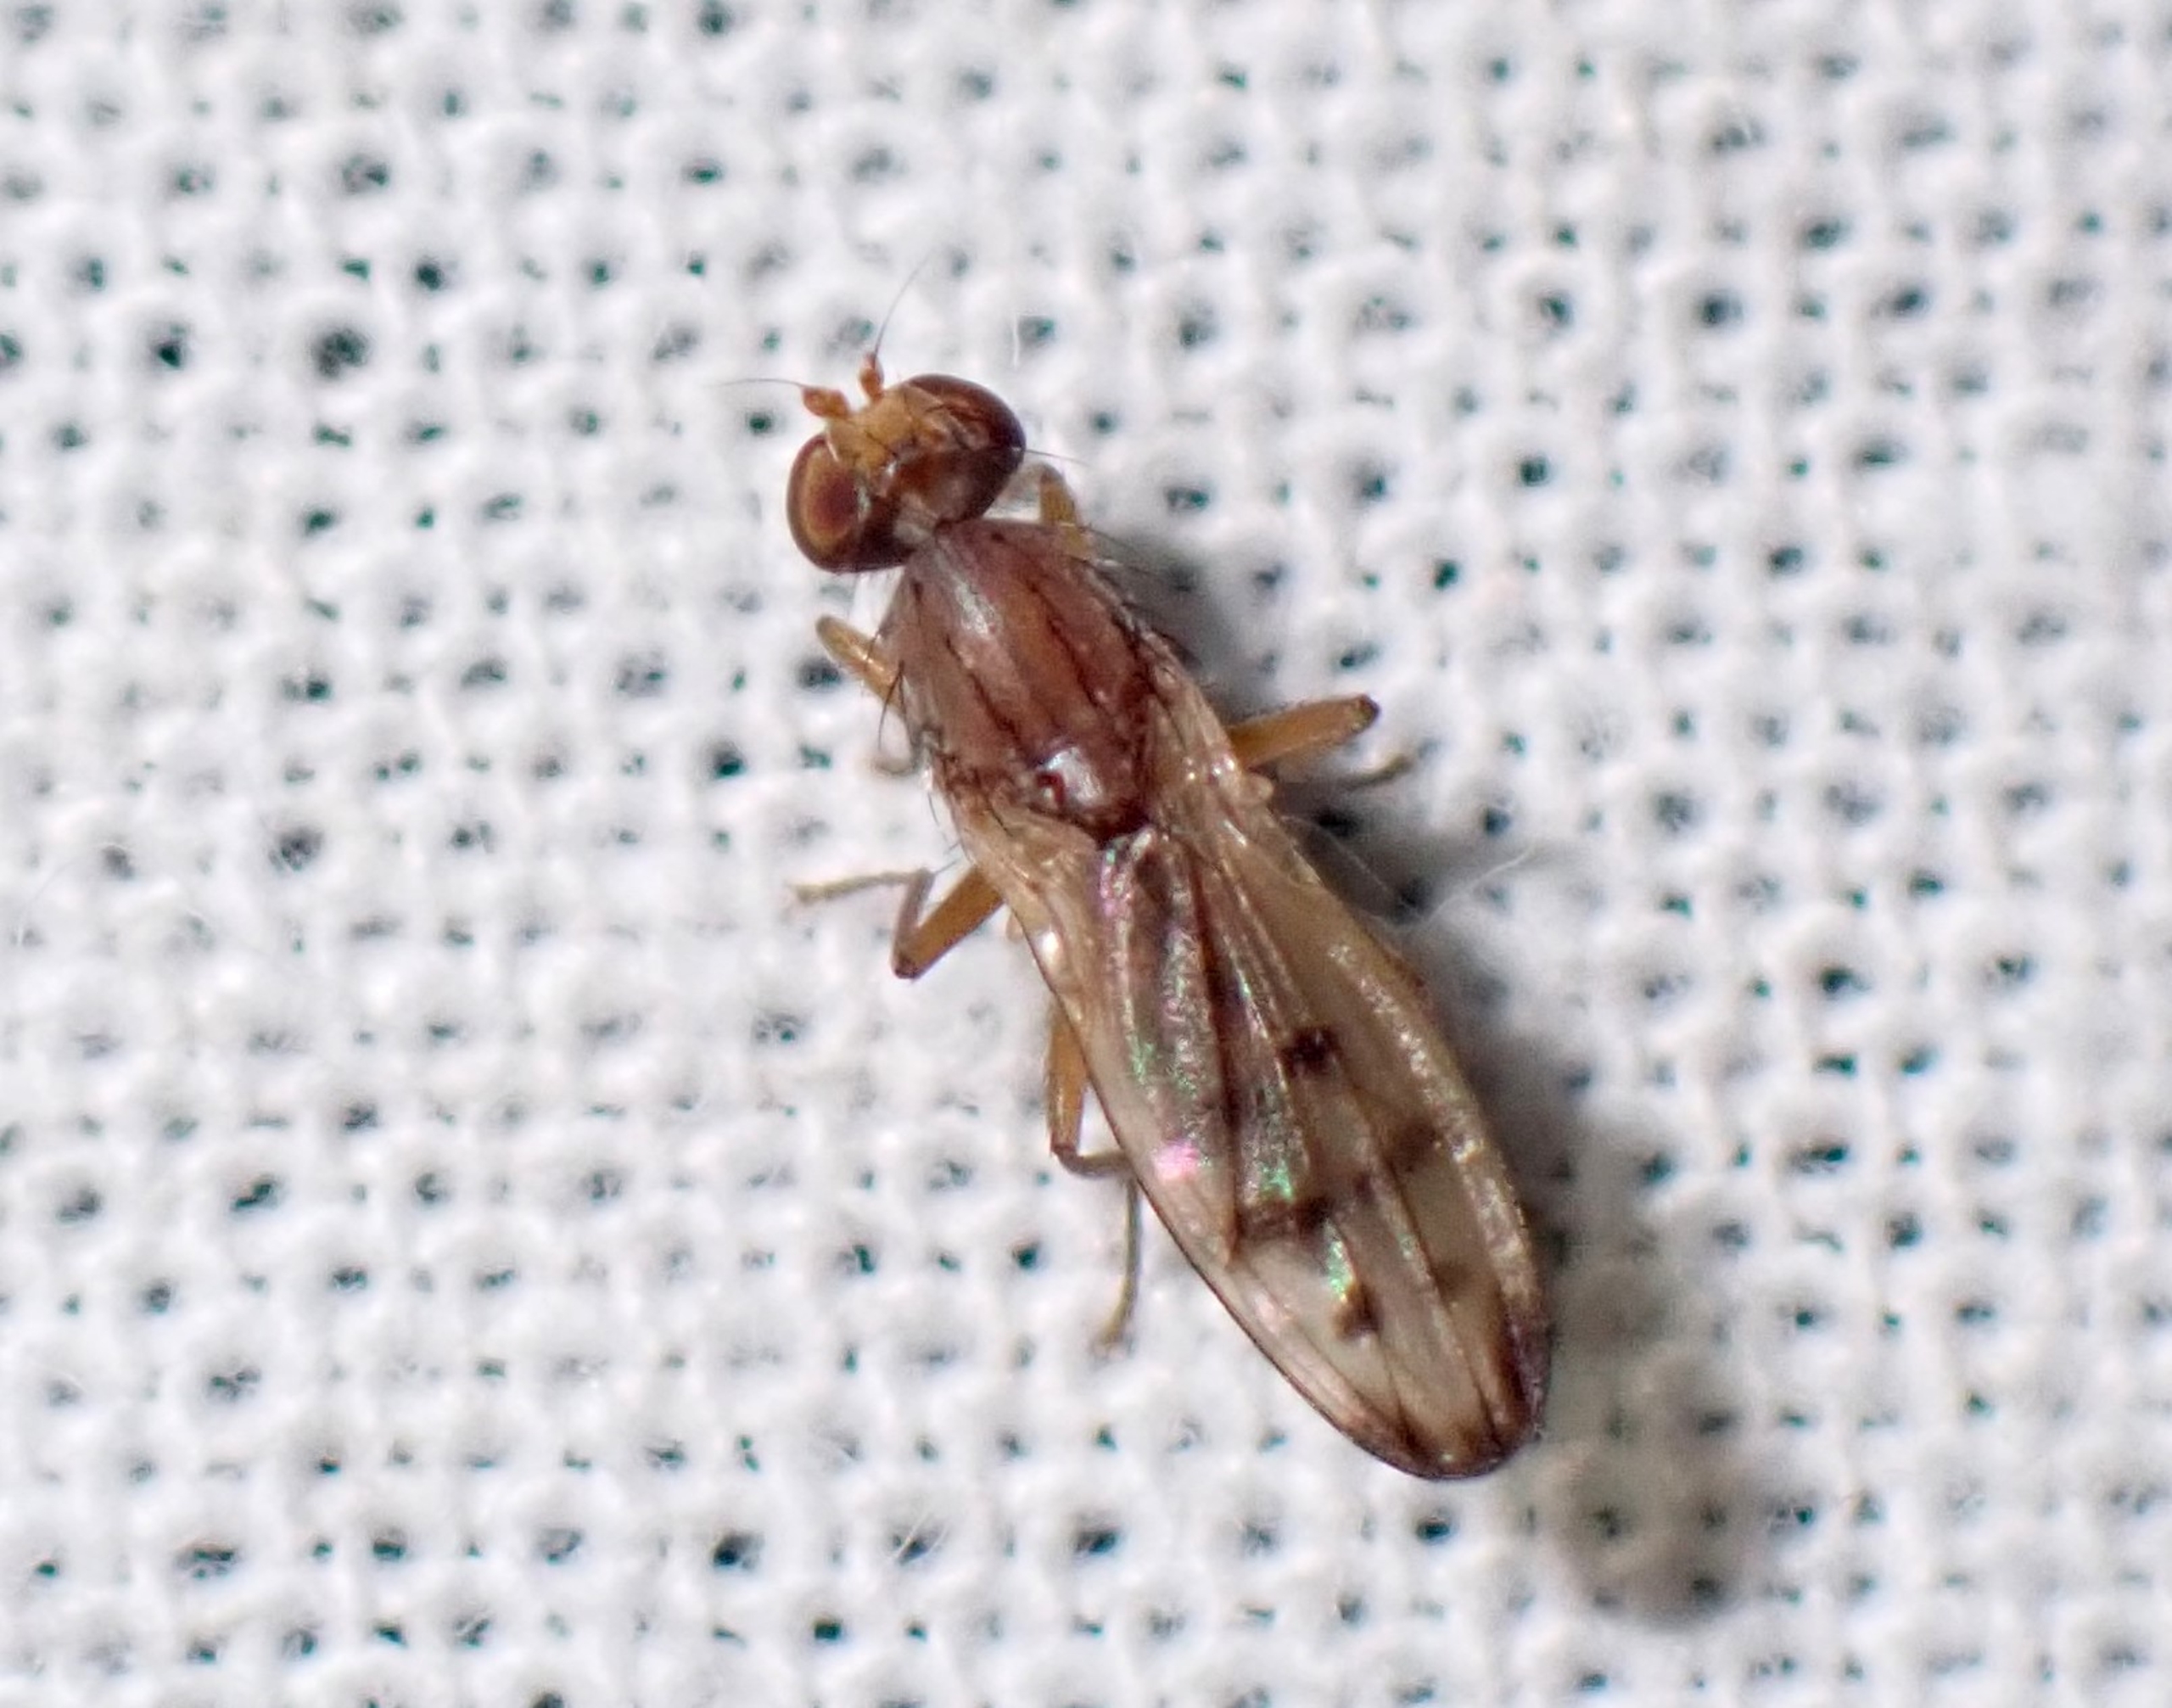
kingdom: Animalia
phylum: Arthropoda
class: Insecta
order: Diptera
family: Opomyzidae
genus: Opomyza
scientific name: Opomyza florum
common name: Gul græsflue
